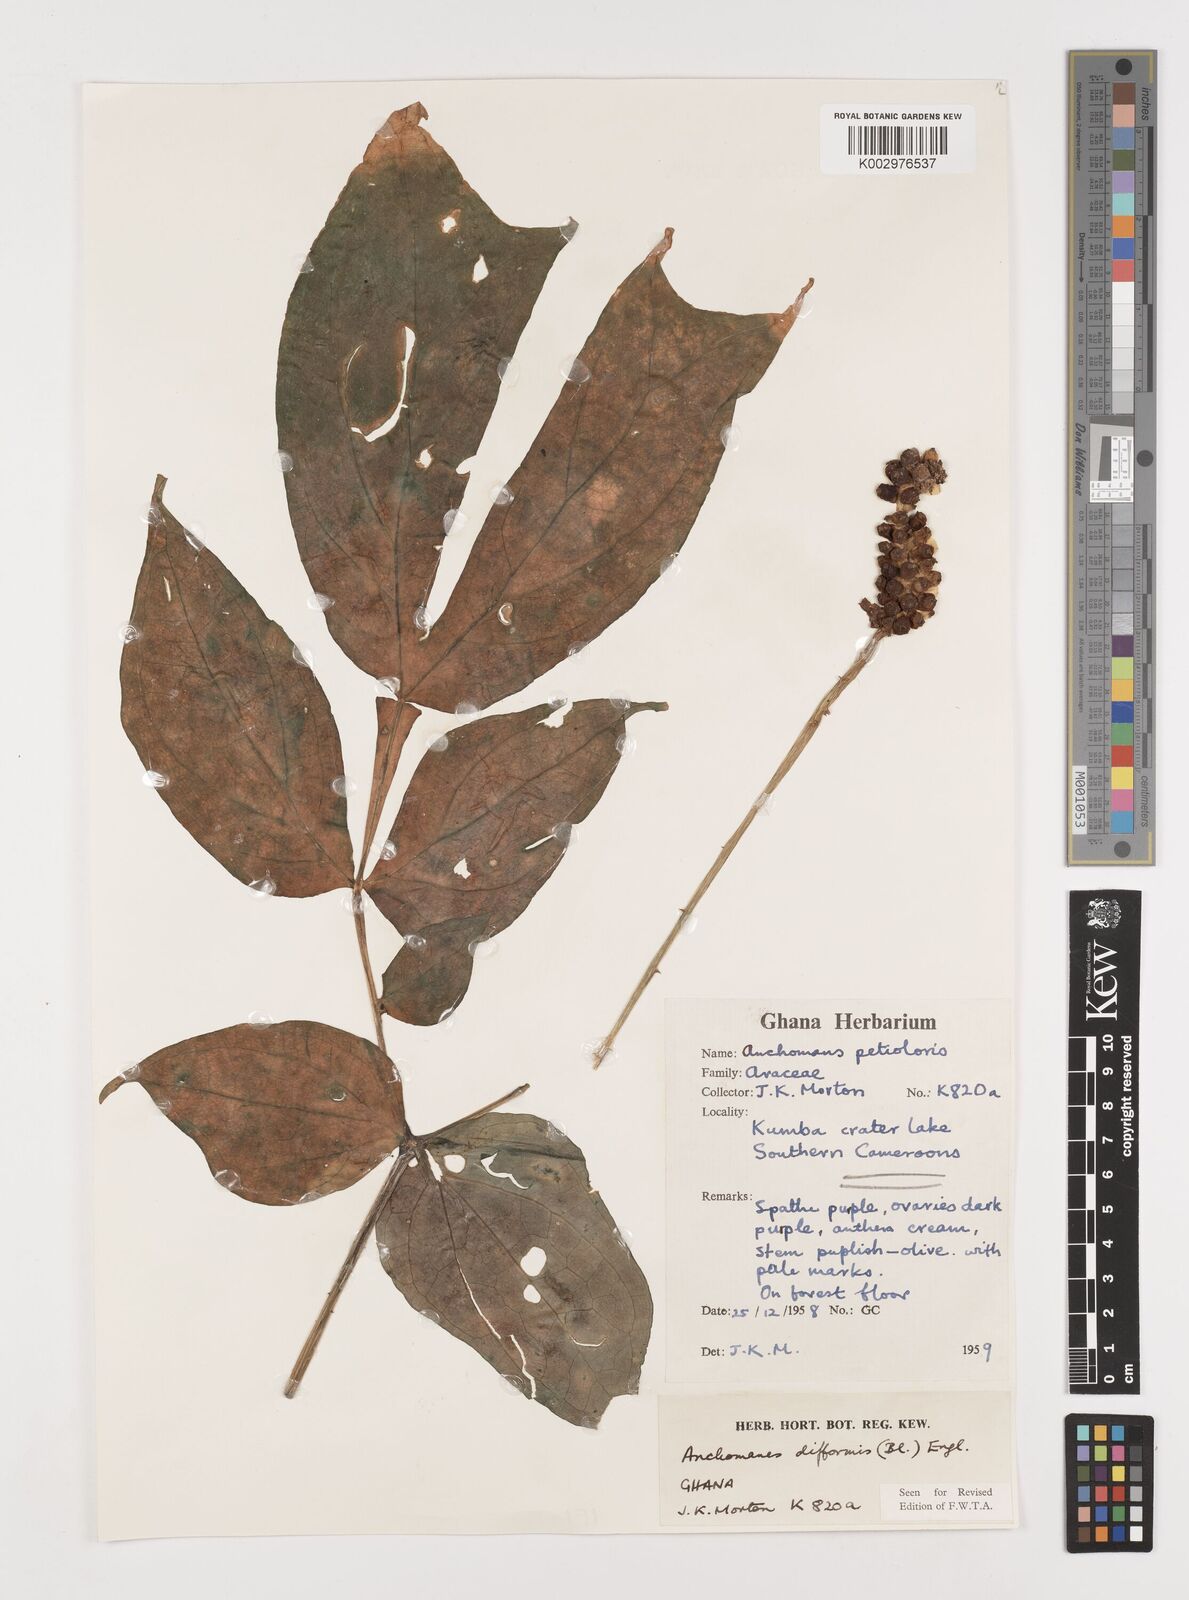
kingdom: Plantae
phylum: Tracheophyta
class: Liliopsida
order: Alismatales
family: Araceae
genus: Anchomanes
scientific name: Anchomanes difformis
